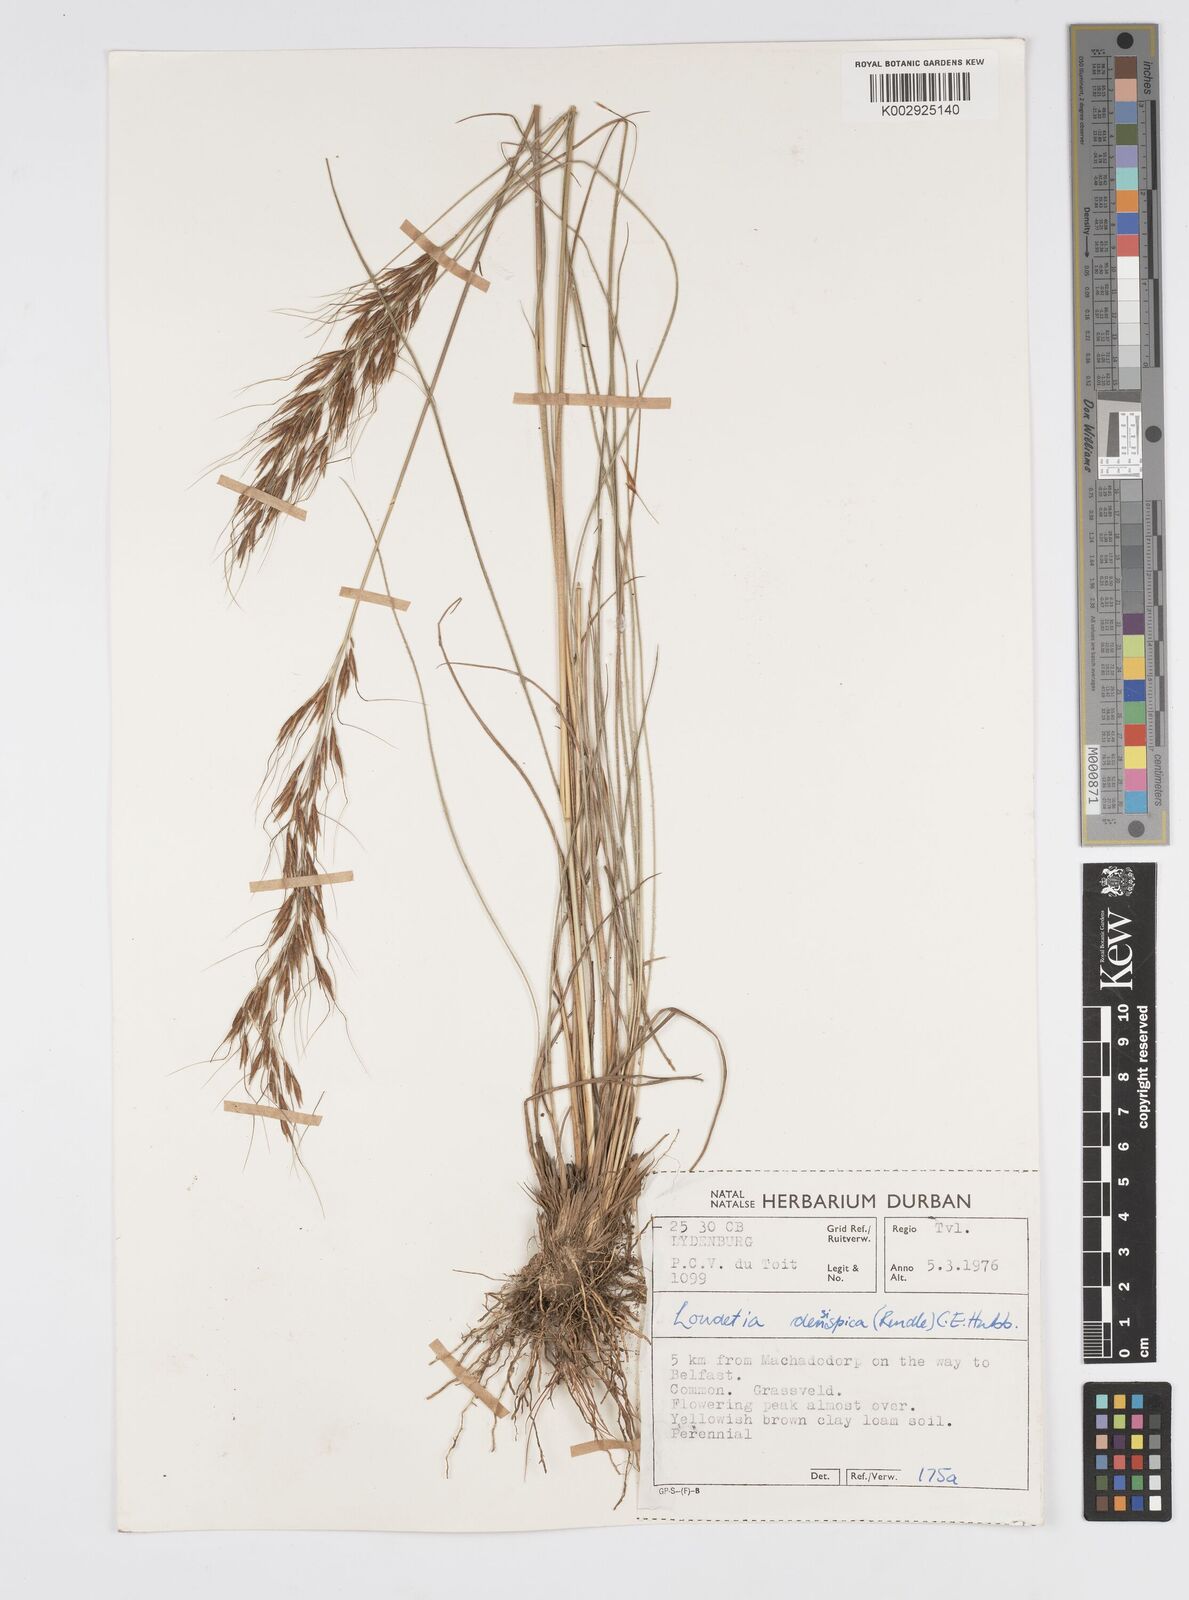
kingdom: Plantae
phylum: Tracheophyta
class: Liliopsida
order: Poales
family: Poaceae
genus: Loudetia
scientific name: Loudetia simplex
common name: Common russet grass
